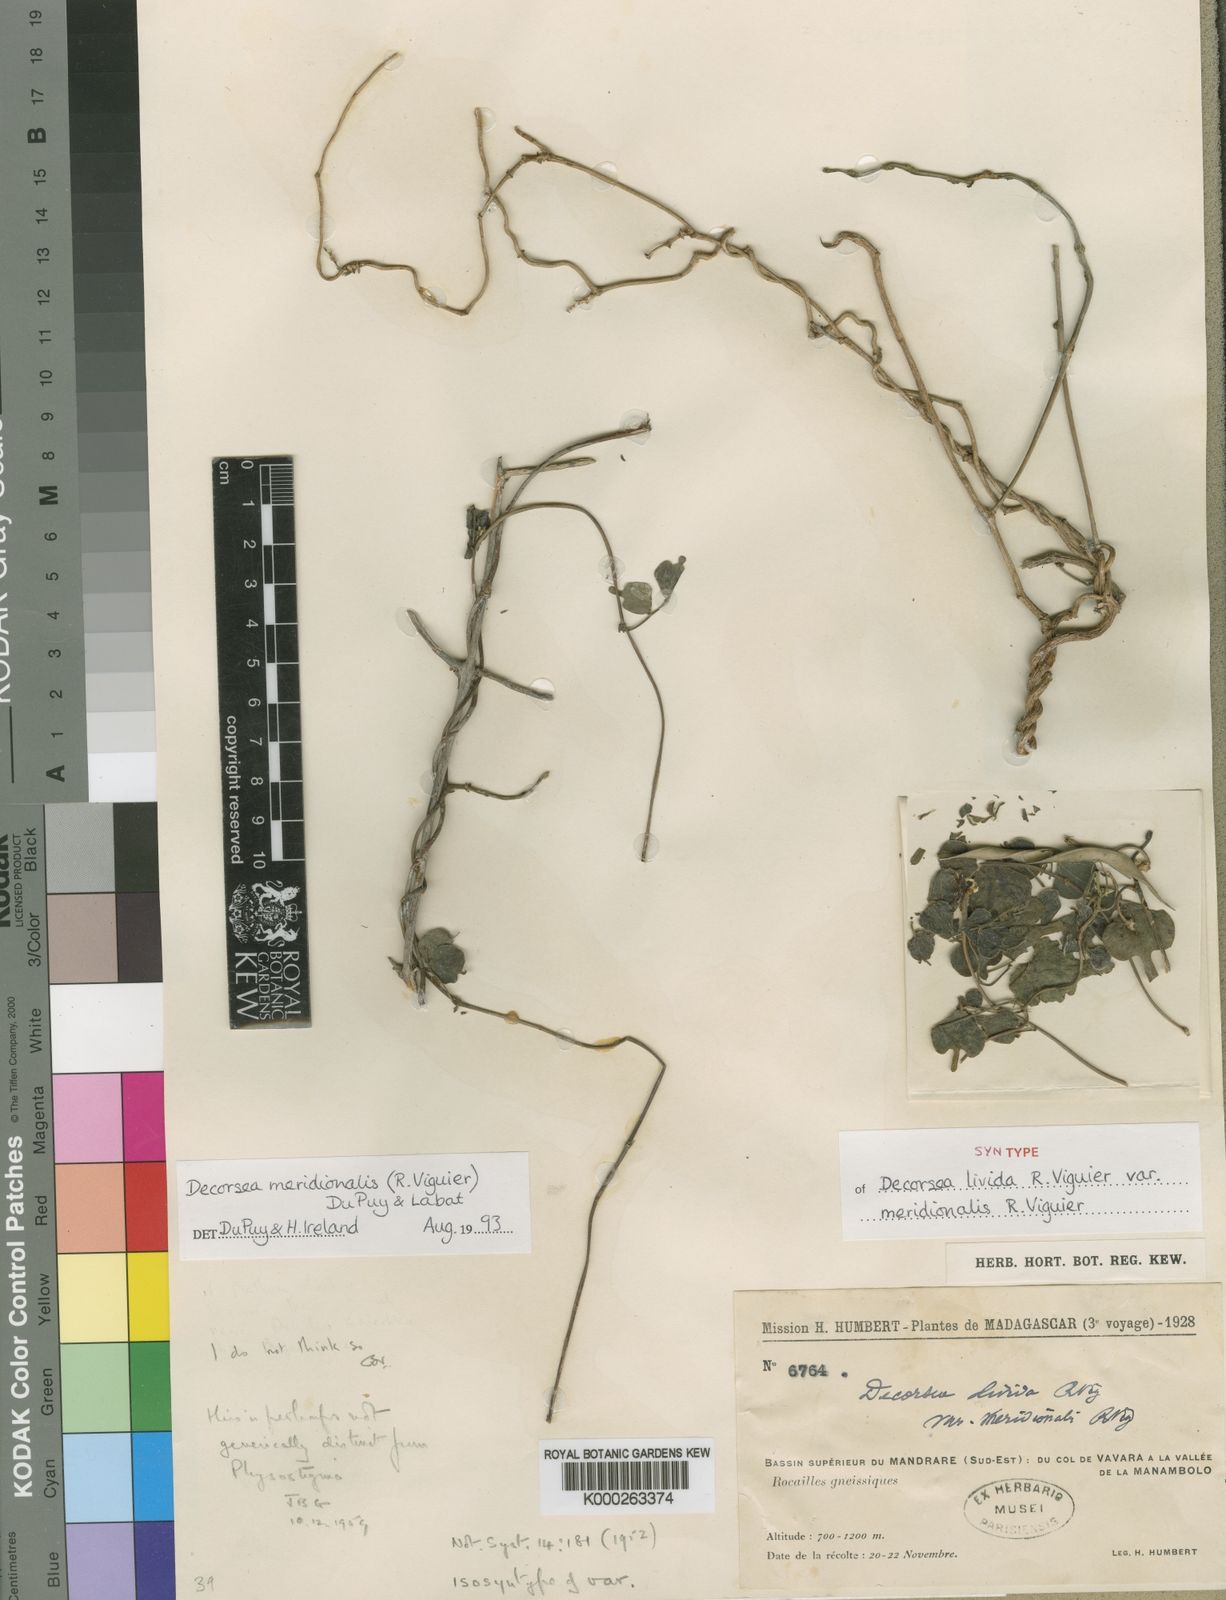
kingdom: Plantae
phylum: Tracheophyta
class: Magnoliopsida
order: Fabales
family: Fabaceae
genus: Decorsea
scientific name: Decorsea meridionalis
